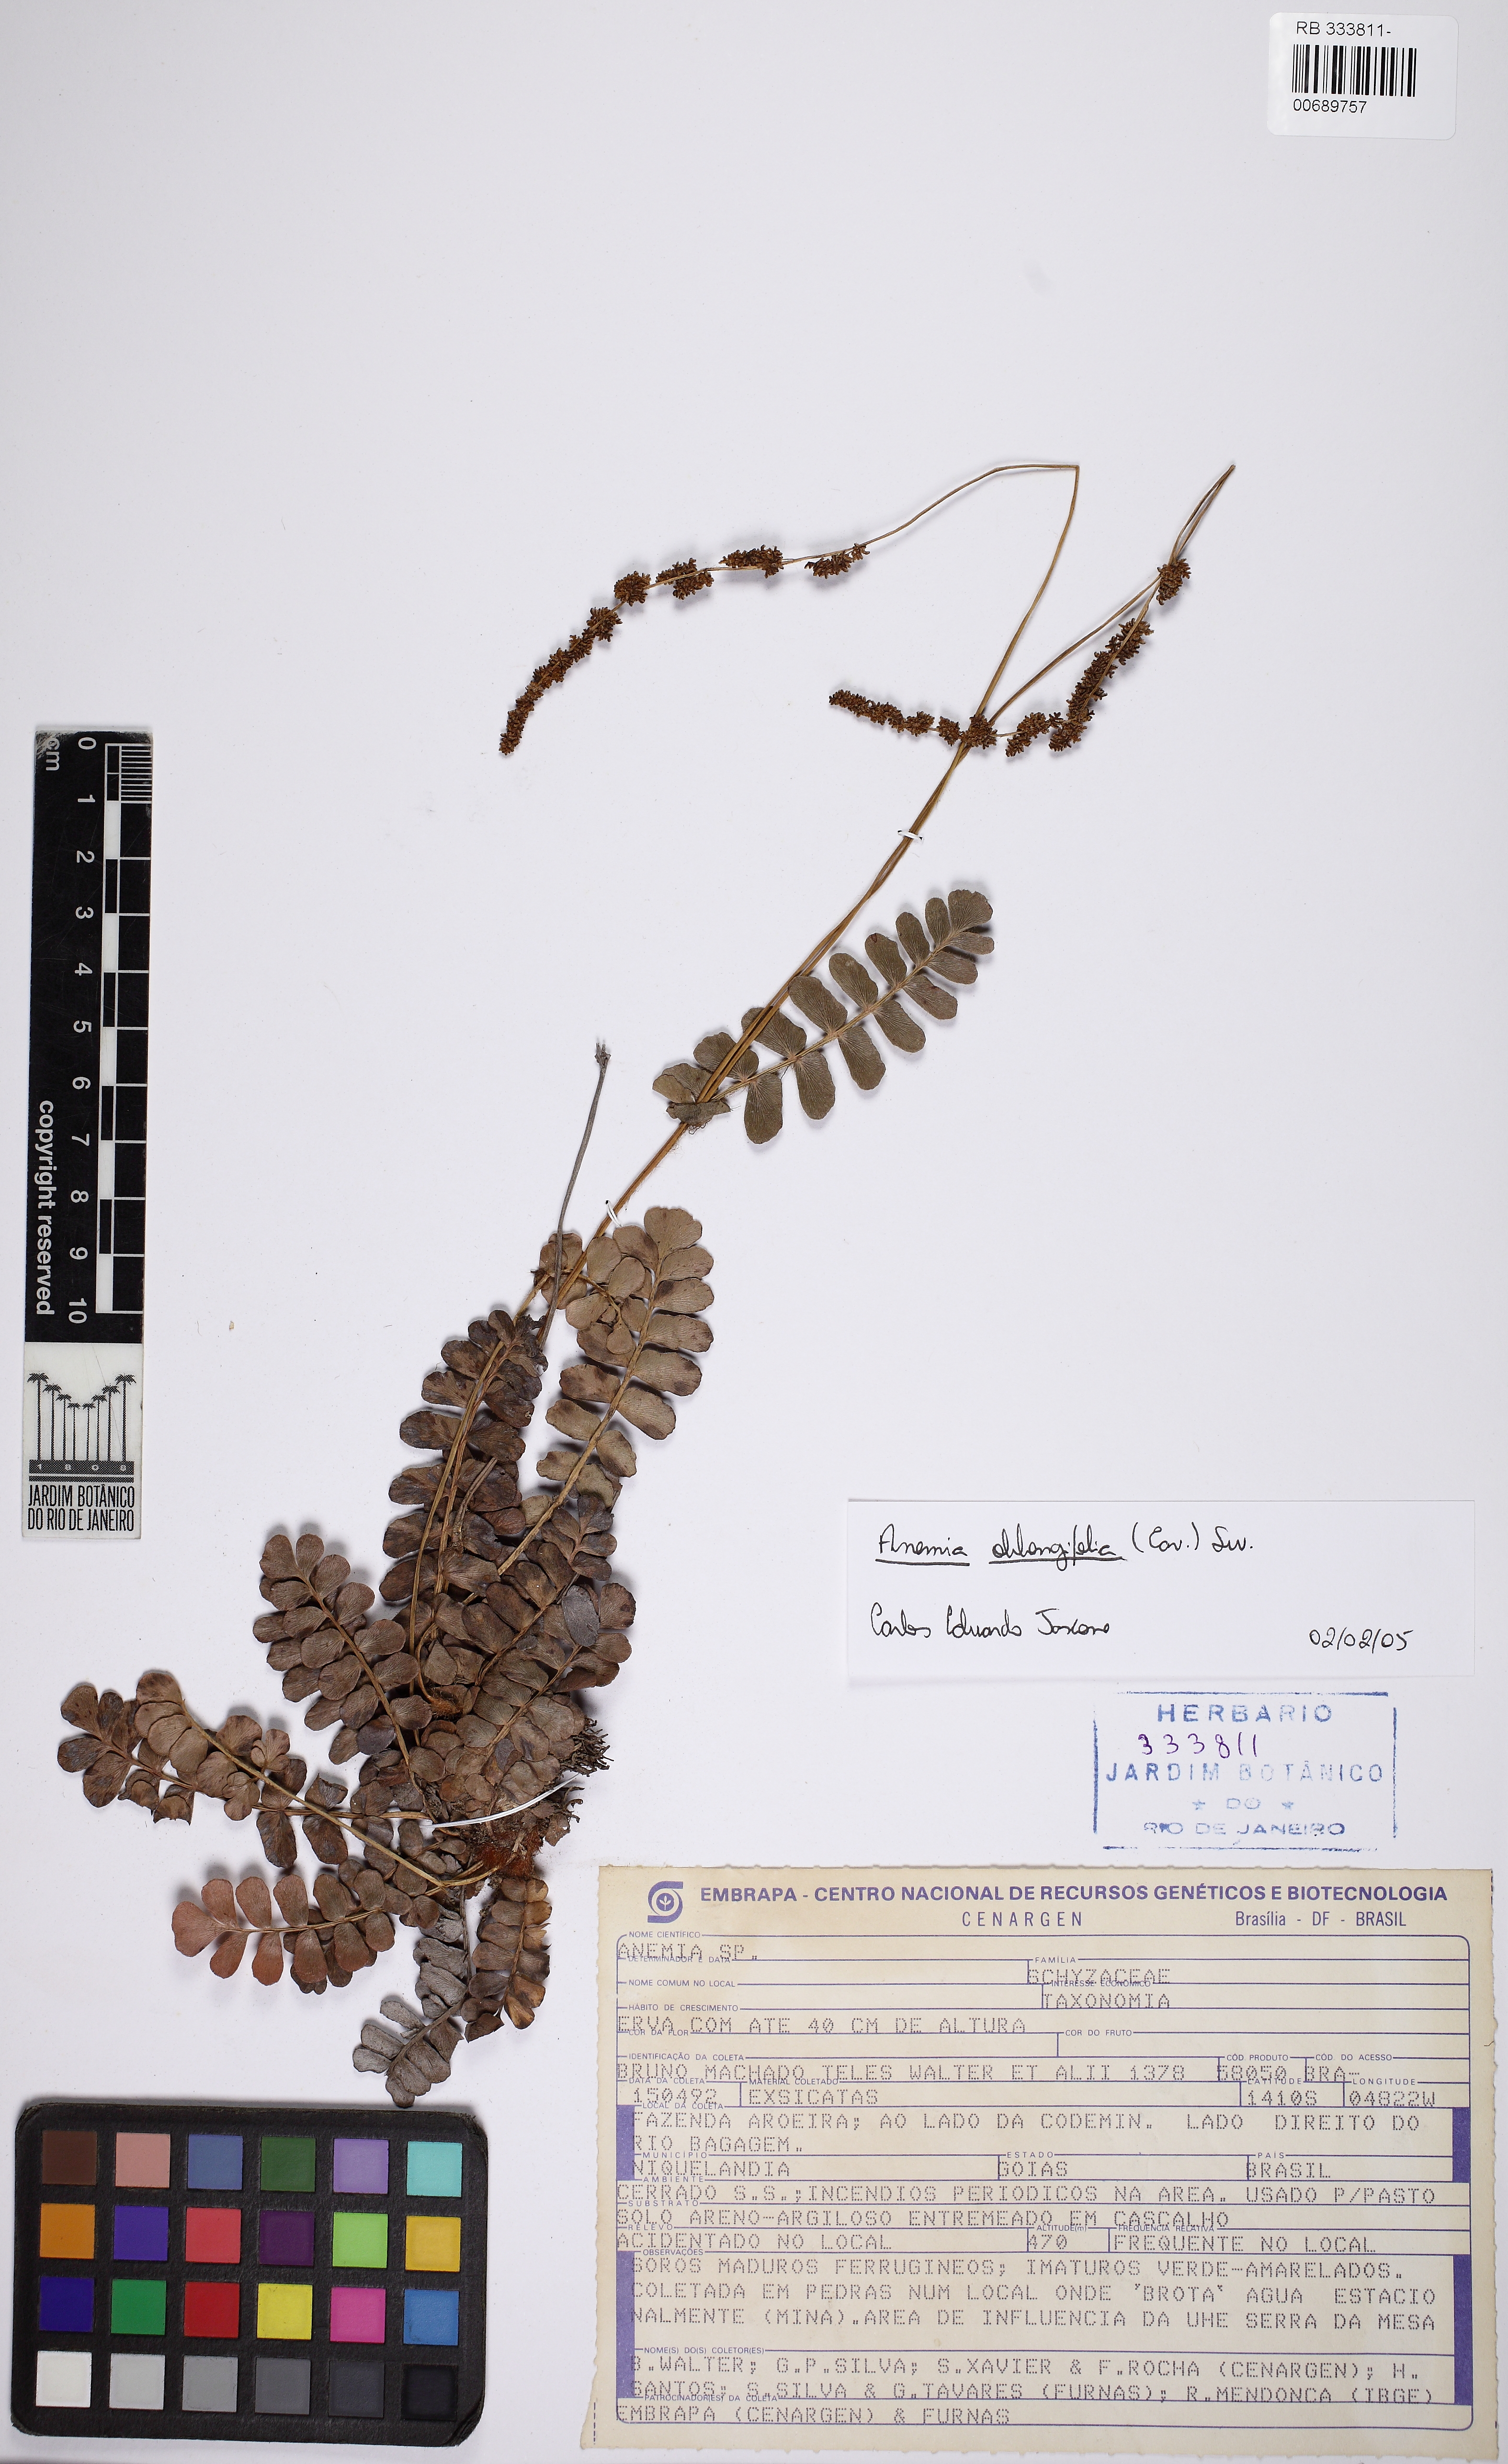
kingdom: Plantae
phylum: Tracheophyta
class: Polypodiopsida
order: Schizaeales
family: Anemiaceae
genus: Anemia
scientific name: Anemia oblongifolia
